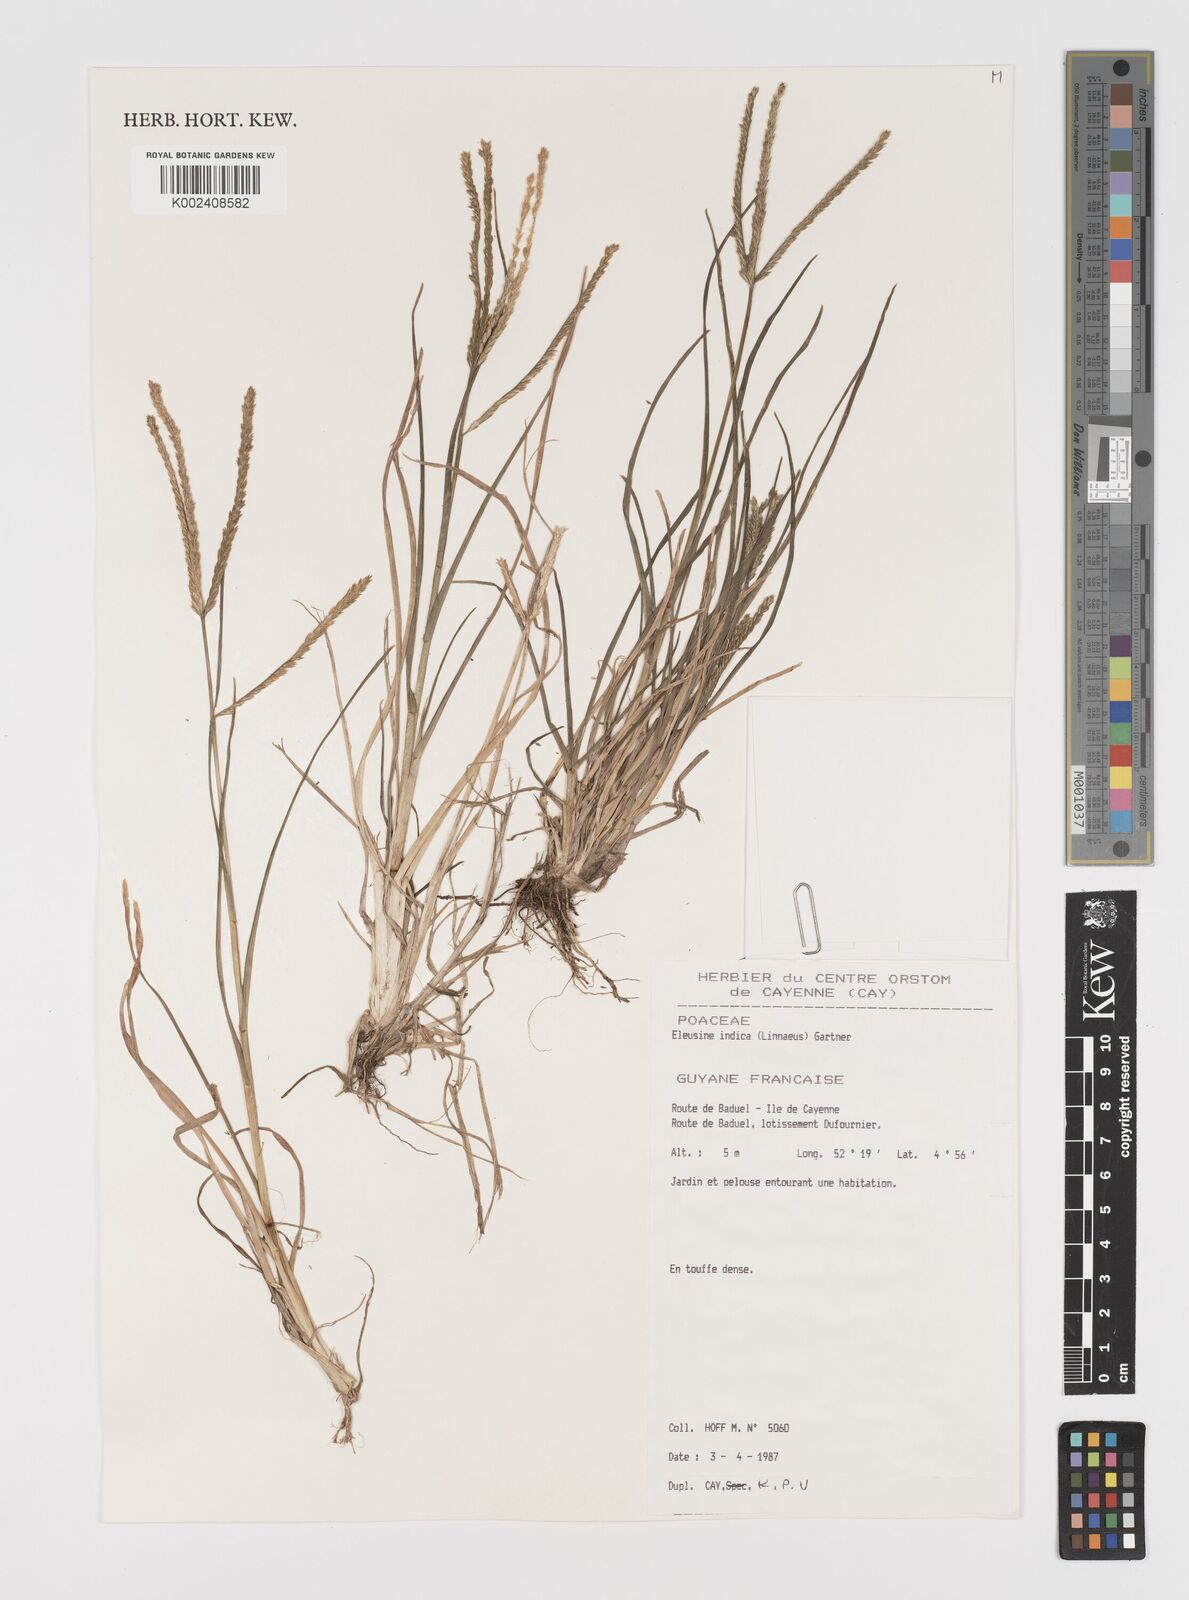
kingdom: Plantae
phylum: Tracheophyta
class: Liliopsida
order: Poales
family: Poaceae
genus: Eleusine
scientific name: Eleusine
